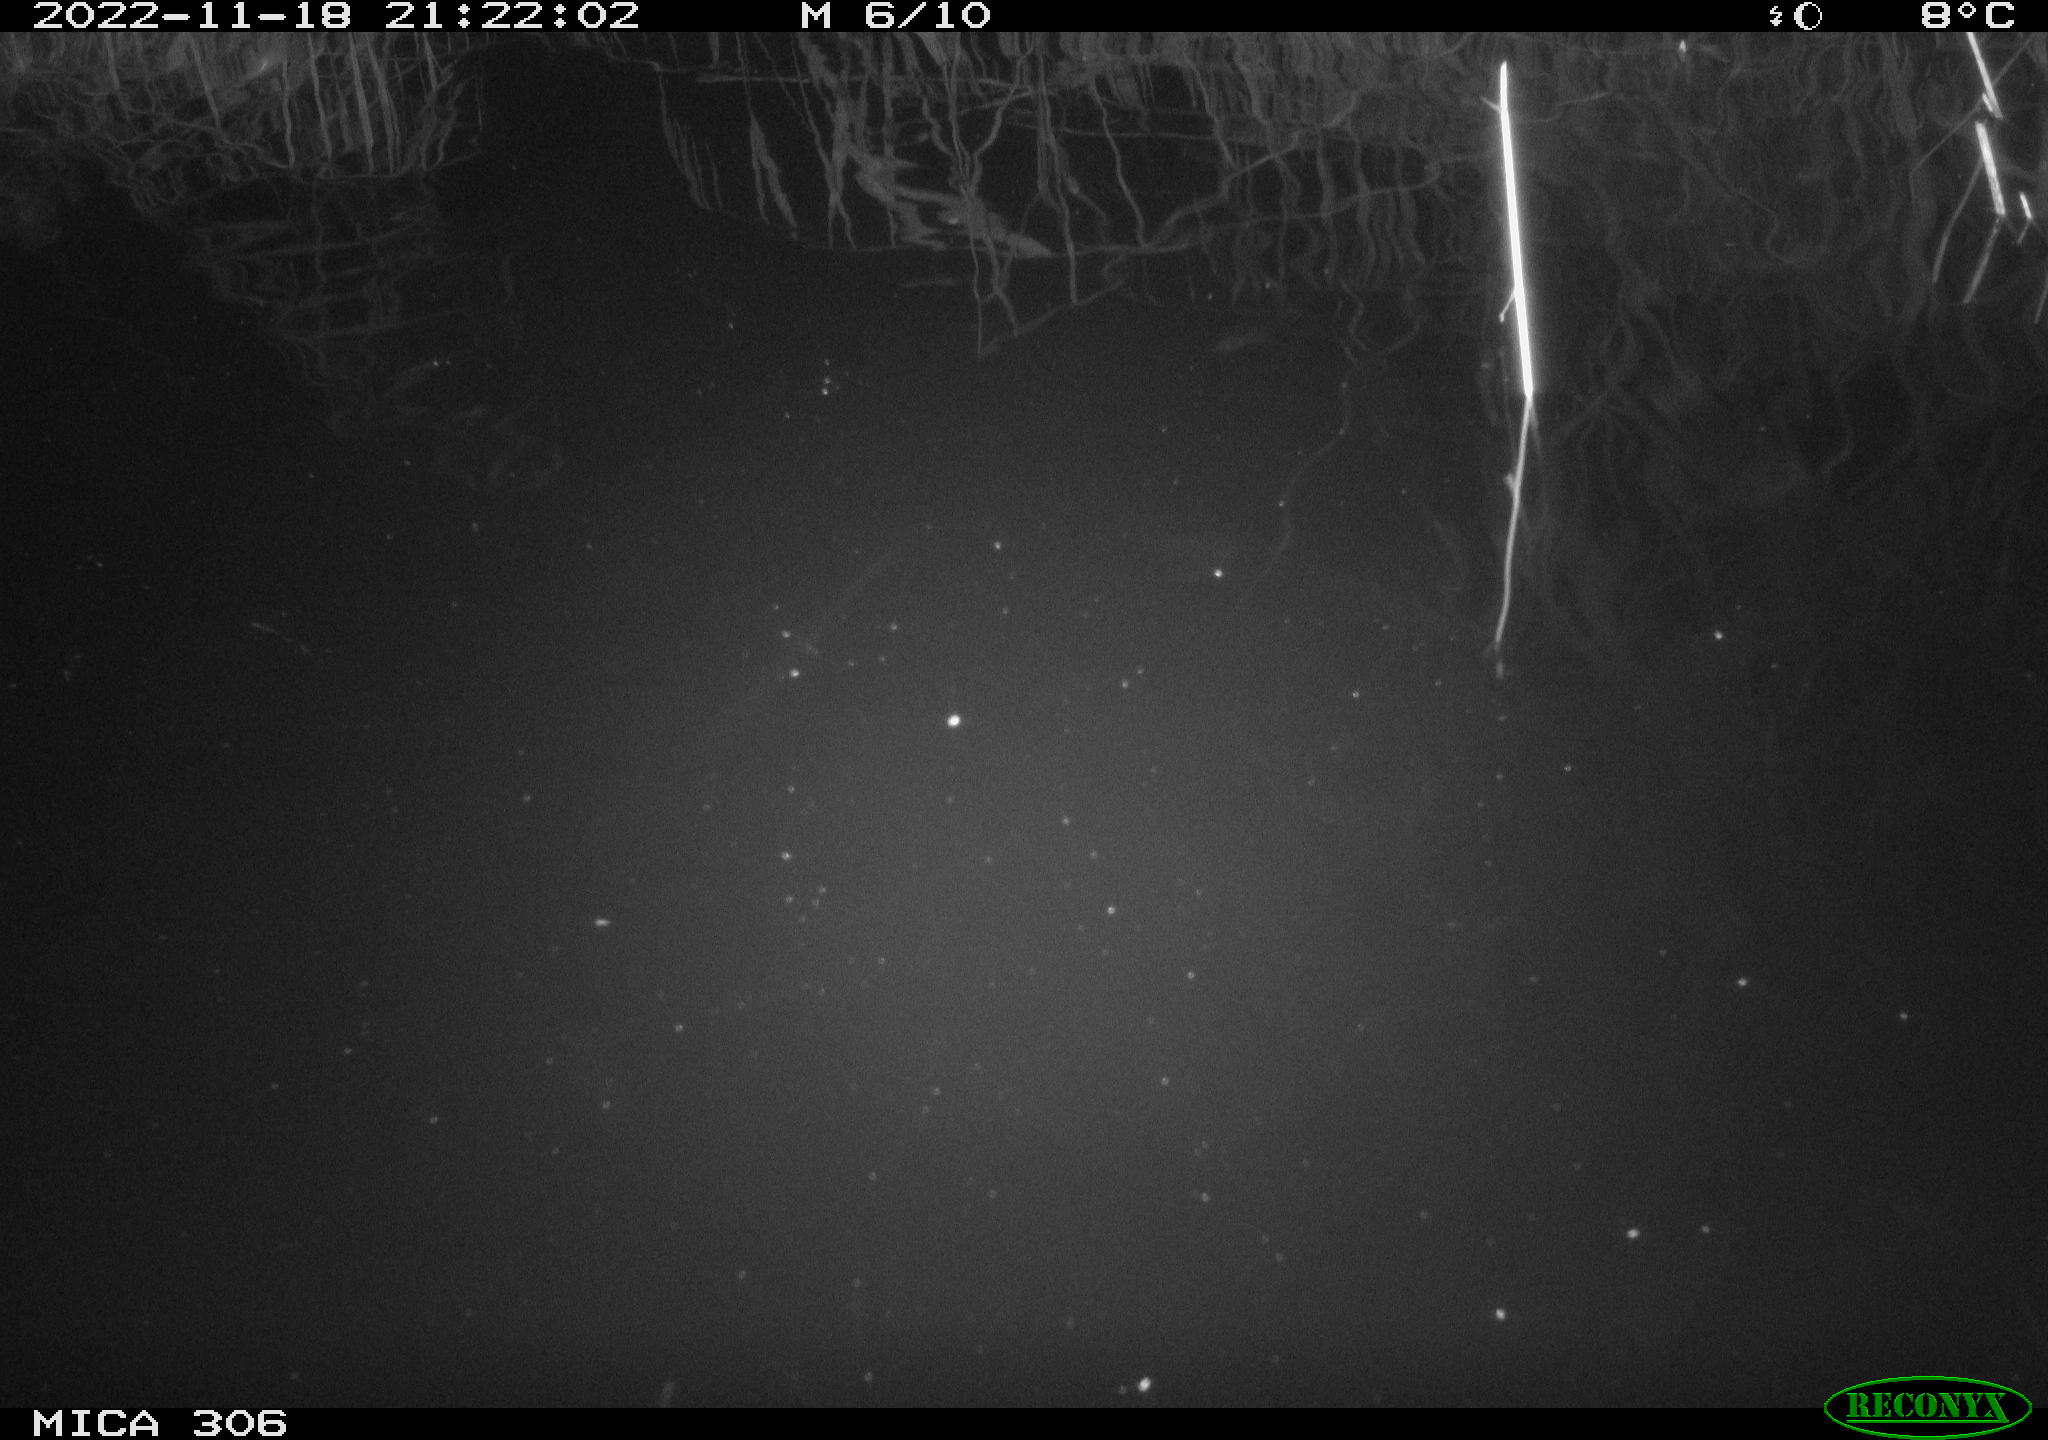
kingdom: Animalia
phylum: Chordata
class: Mammalia
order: Rodentia
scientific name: Rodentia
